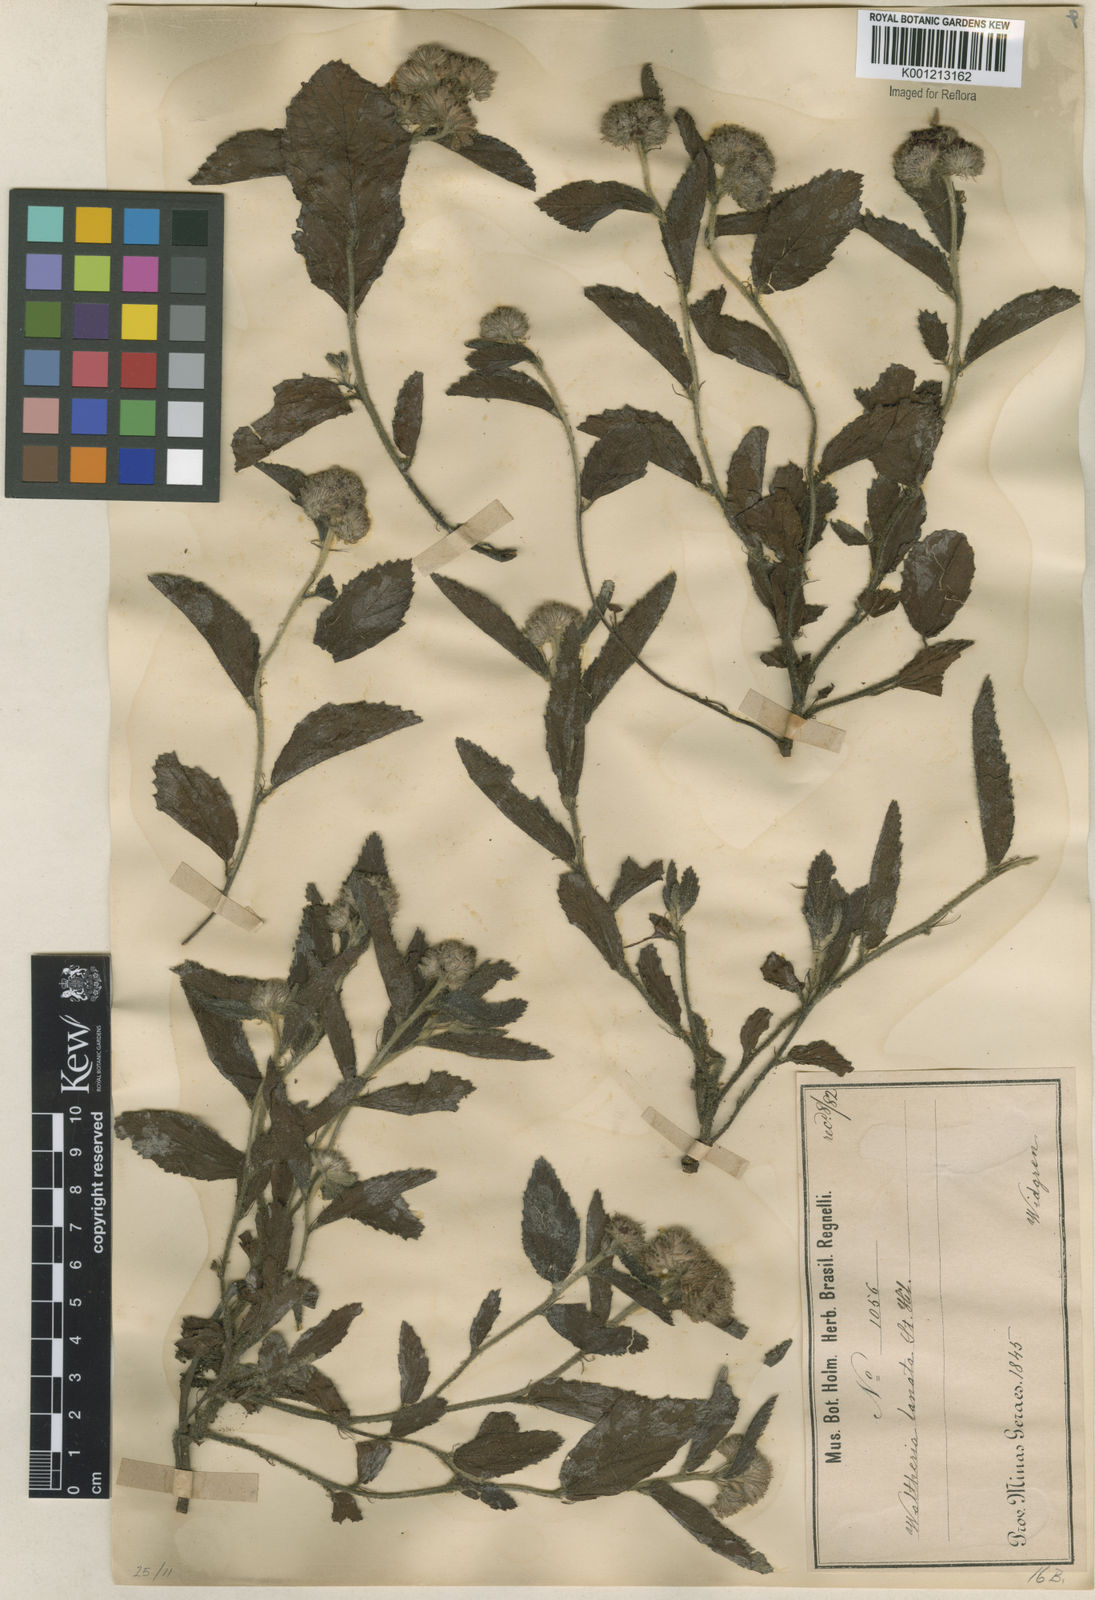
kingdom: Plantae
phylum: Tracheophyta
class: Magnoliopsida
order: Malvales
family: Malvaceae
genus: Waltheria
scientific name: Waltheria communis
